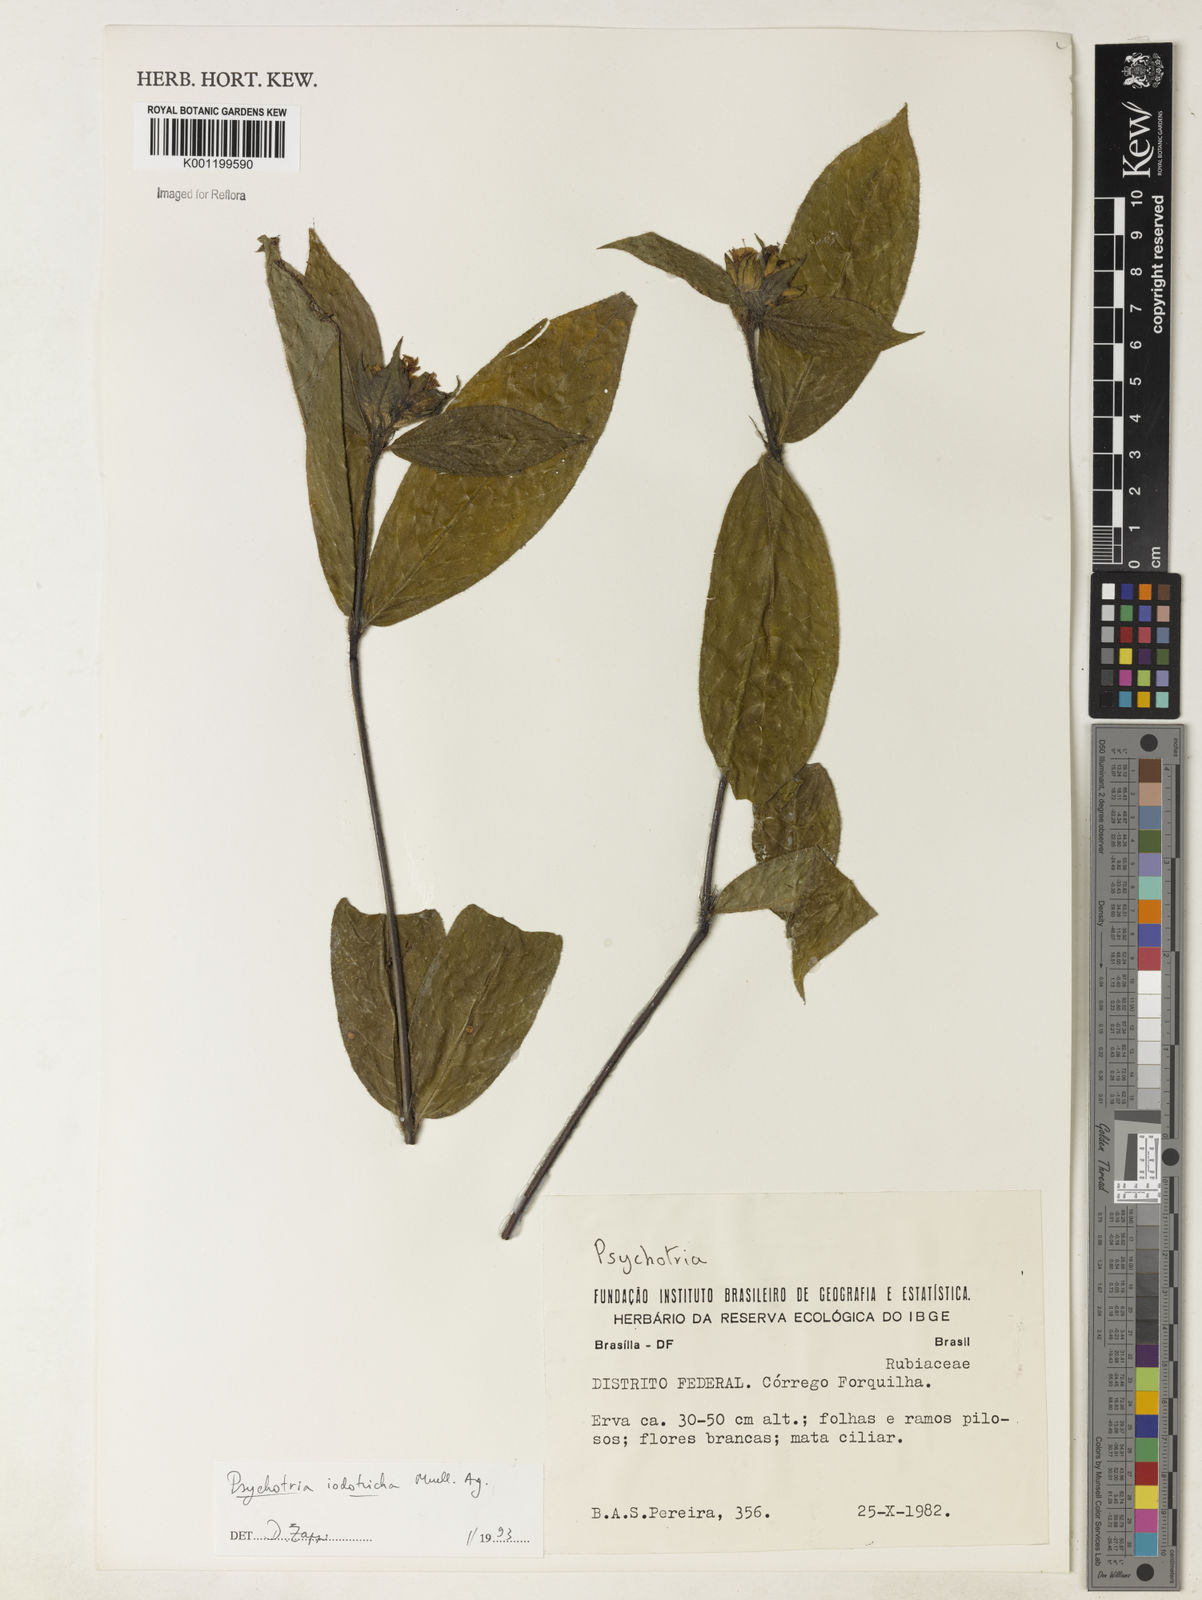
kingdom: Plantae
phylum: Tracheophyta
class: Magnoliopsida
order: Gentianales
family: Rubiaceae
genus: Psychotria
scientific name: Psychotria
